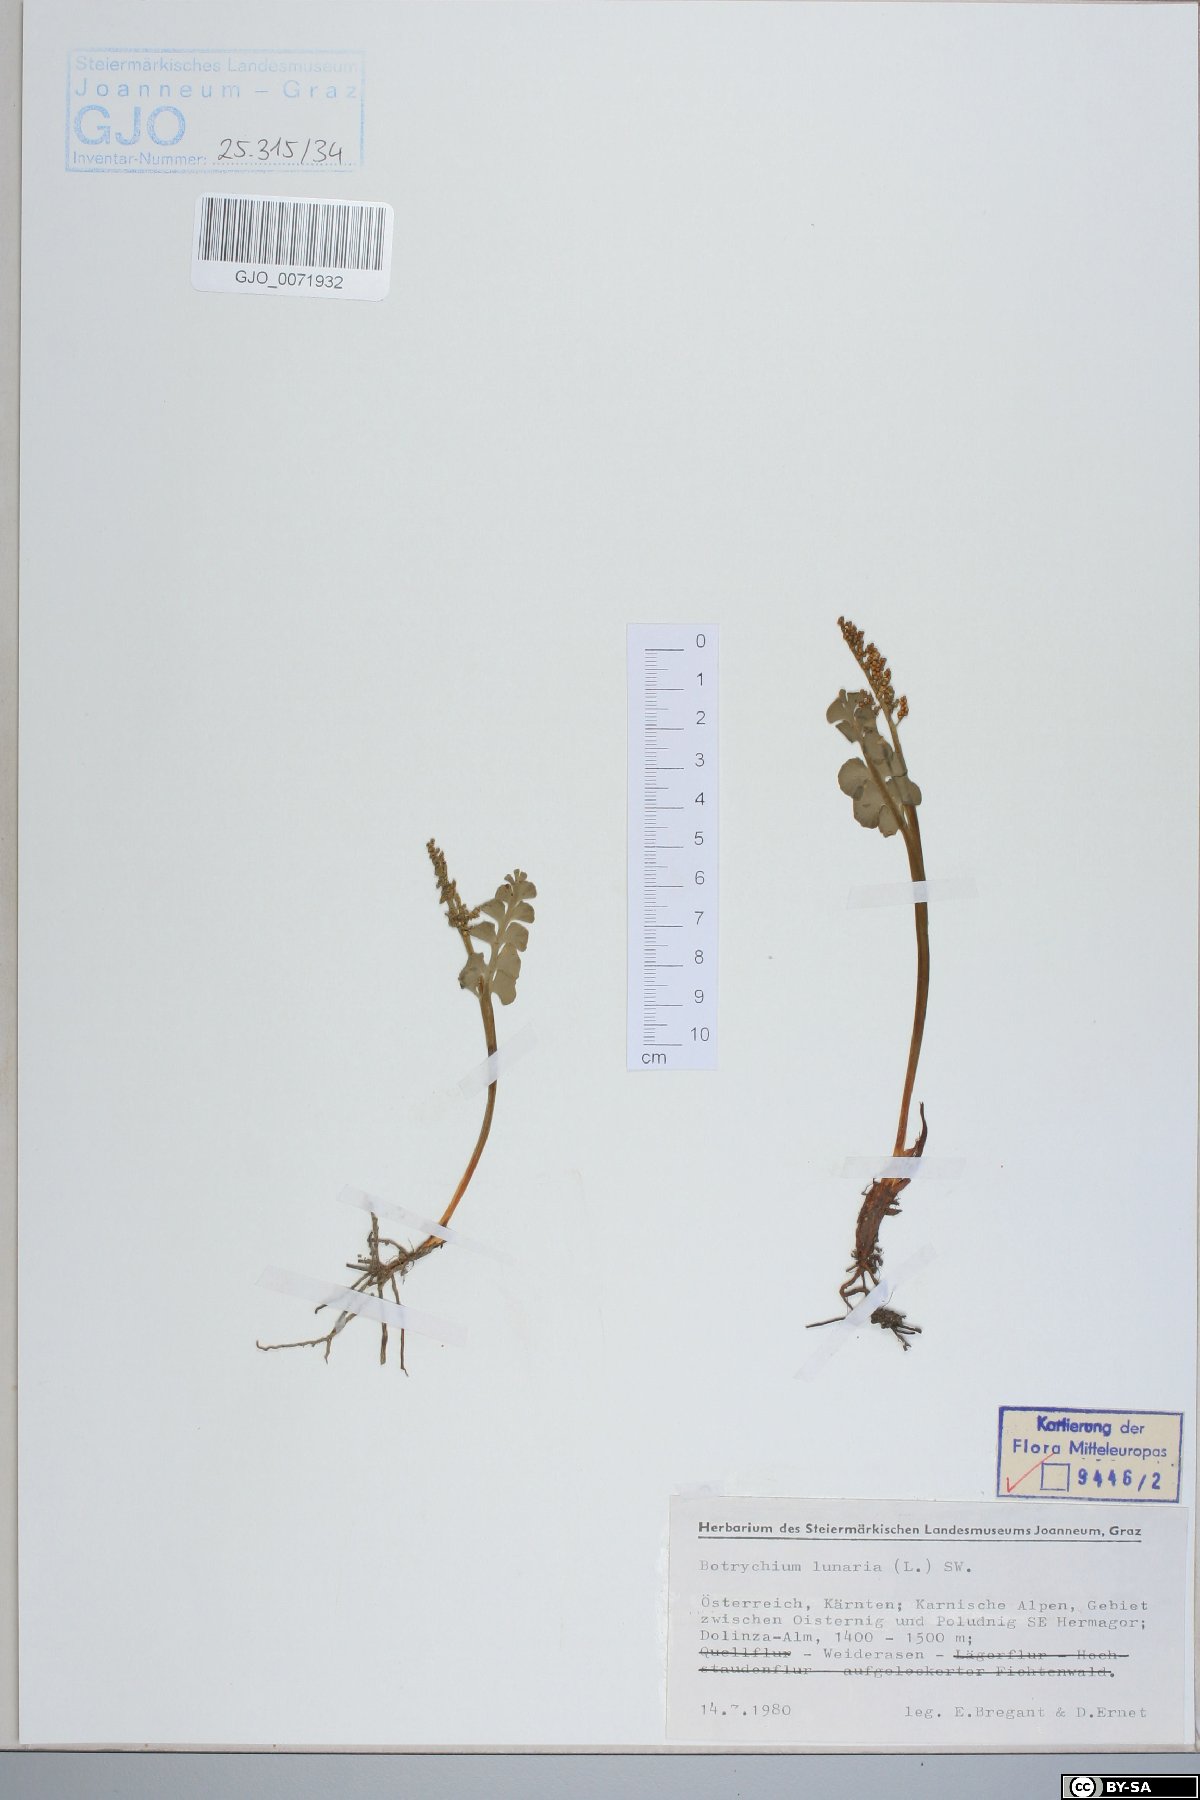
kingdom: Plantae
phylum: Tracheophyta
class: Polypodiopsida
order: Ophioglossales
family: Ophioglossaceae
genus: Botrychium
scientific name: Botrychium lunaria
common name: Moonwort
